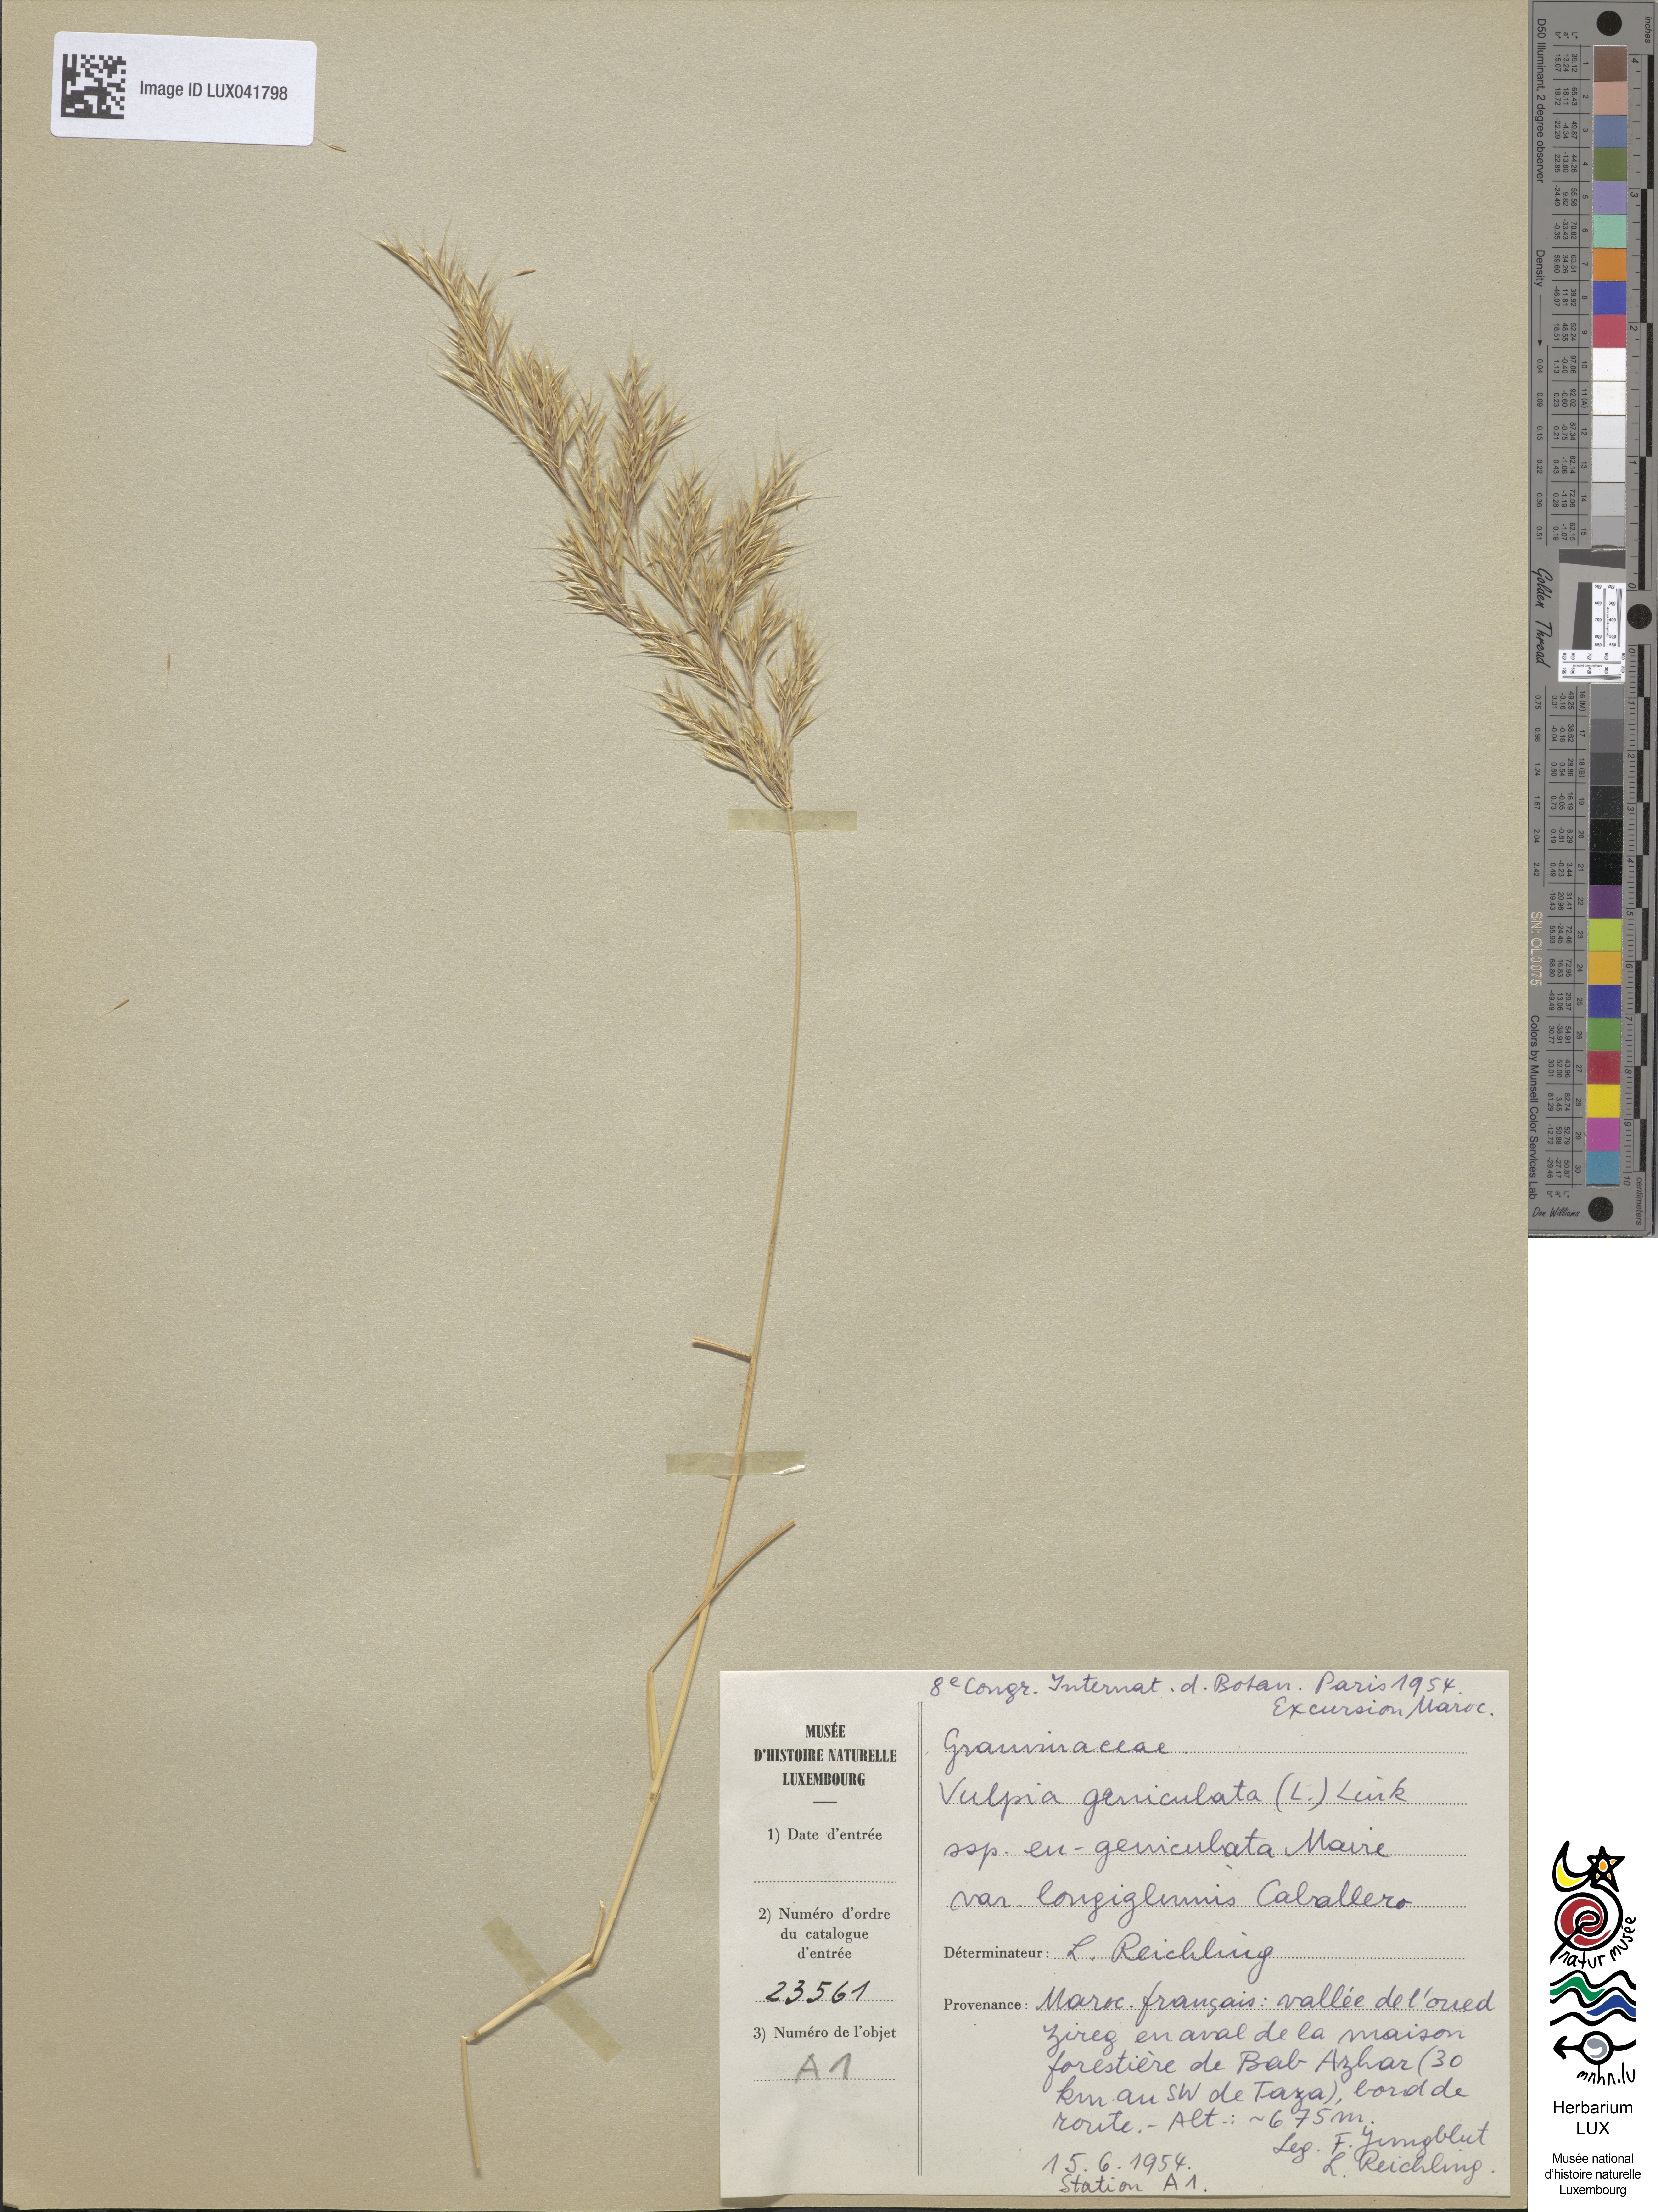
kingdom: Plantae
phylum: Tracheophyta
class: Liliopsida
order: Poales
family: Poaceae
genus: Festuca
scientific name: Festuca geniculata
